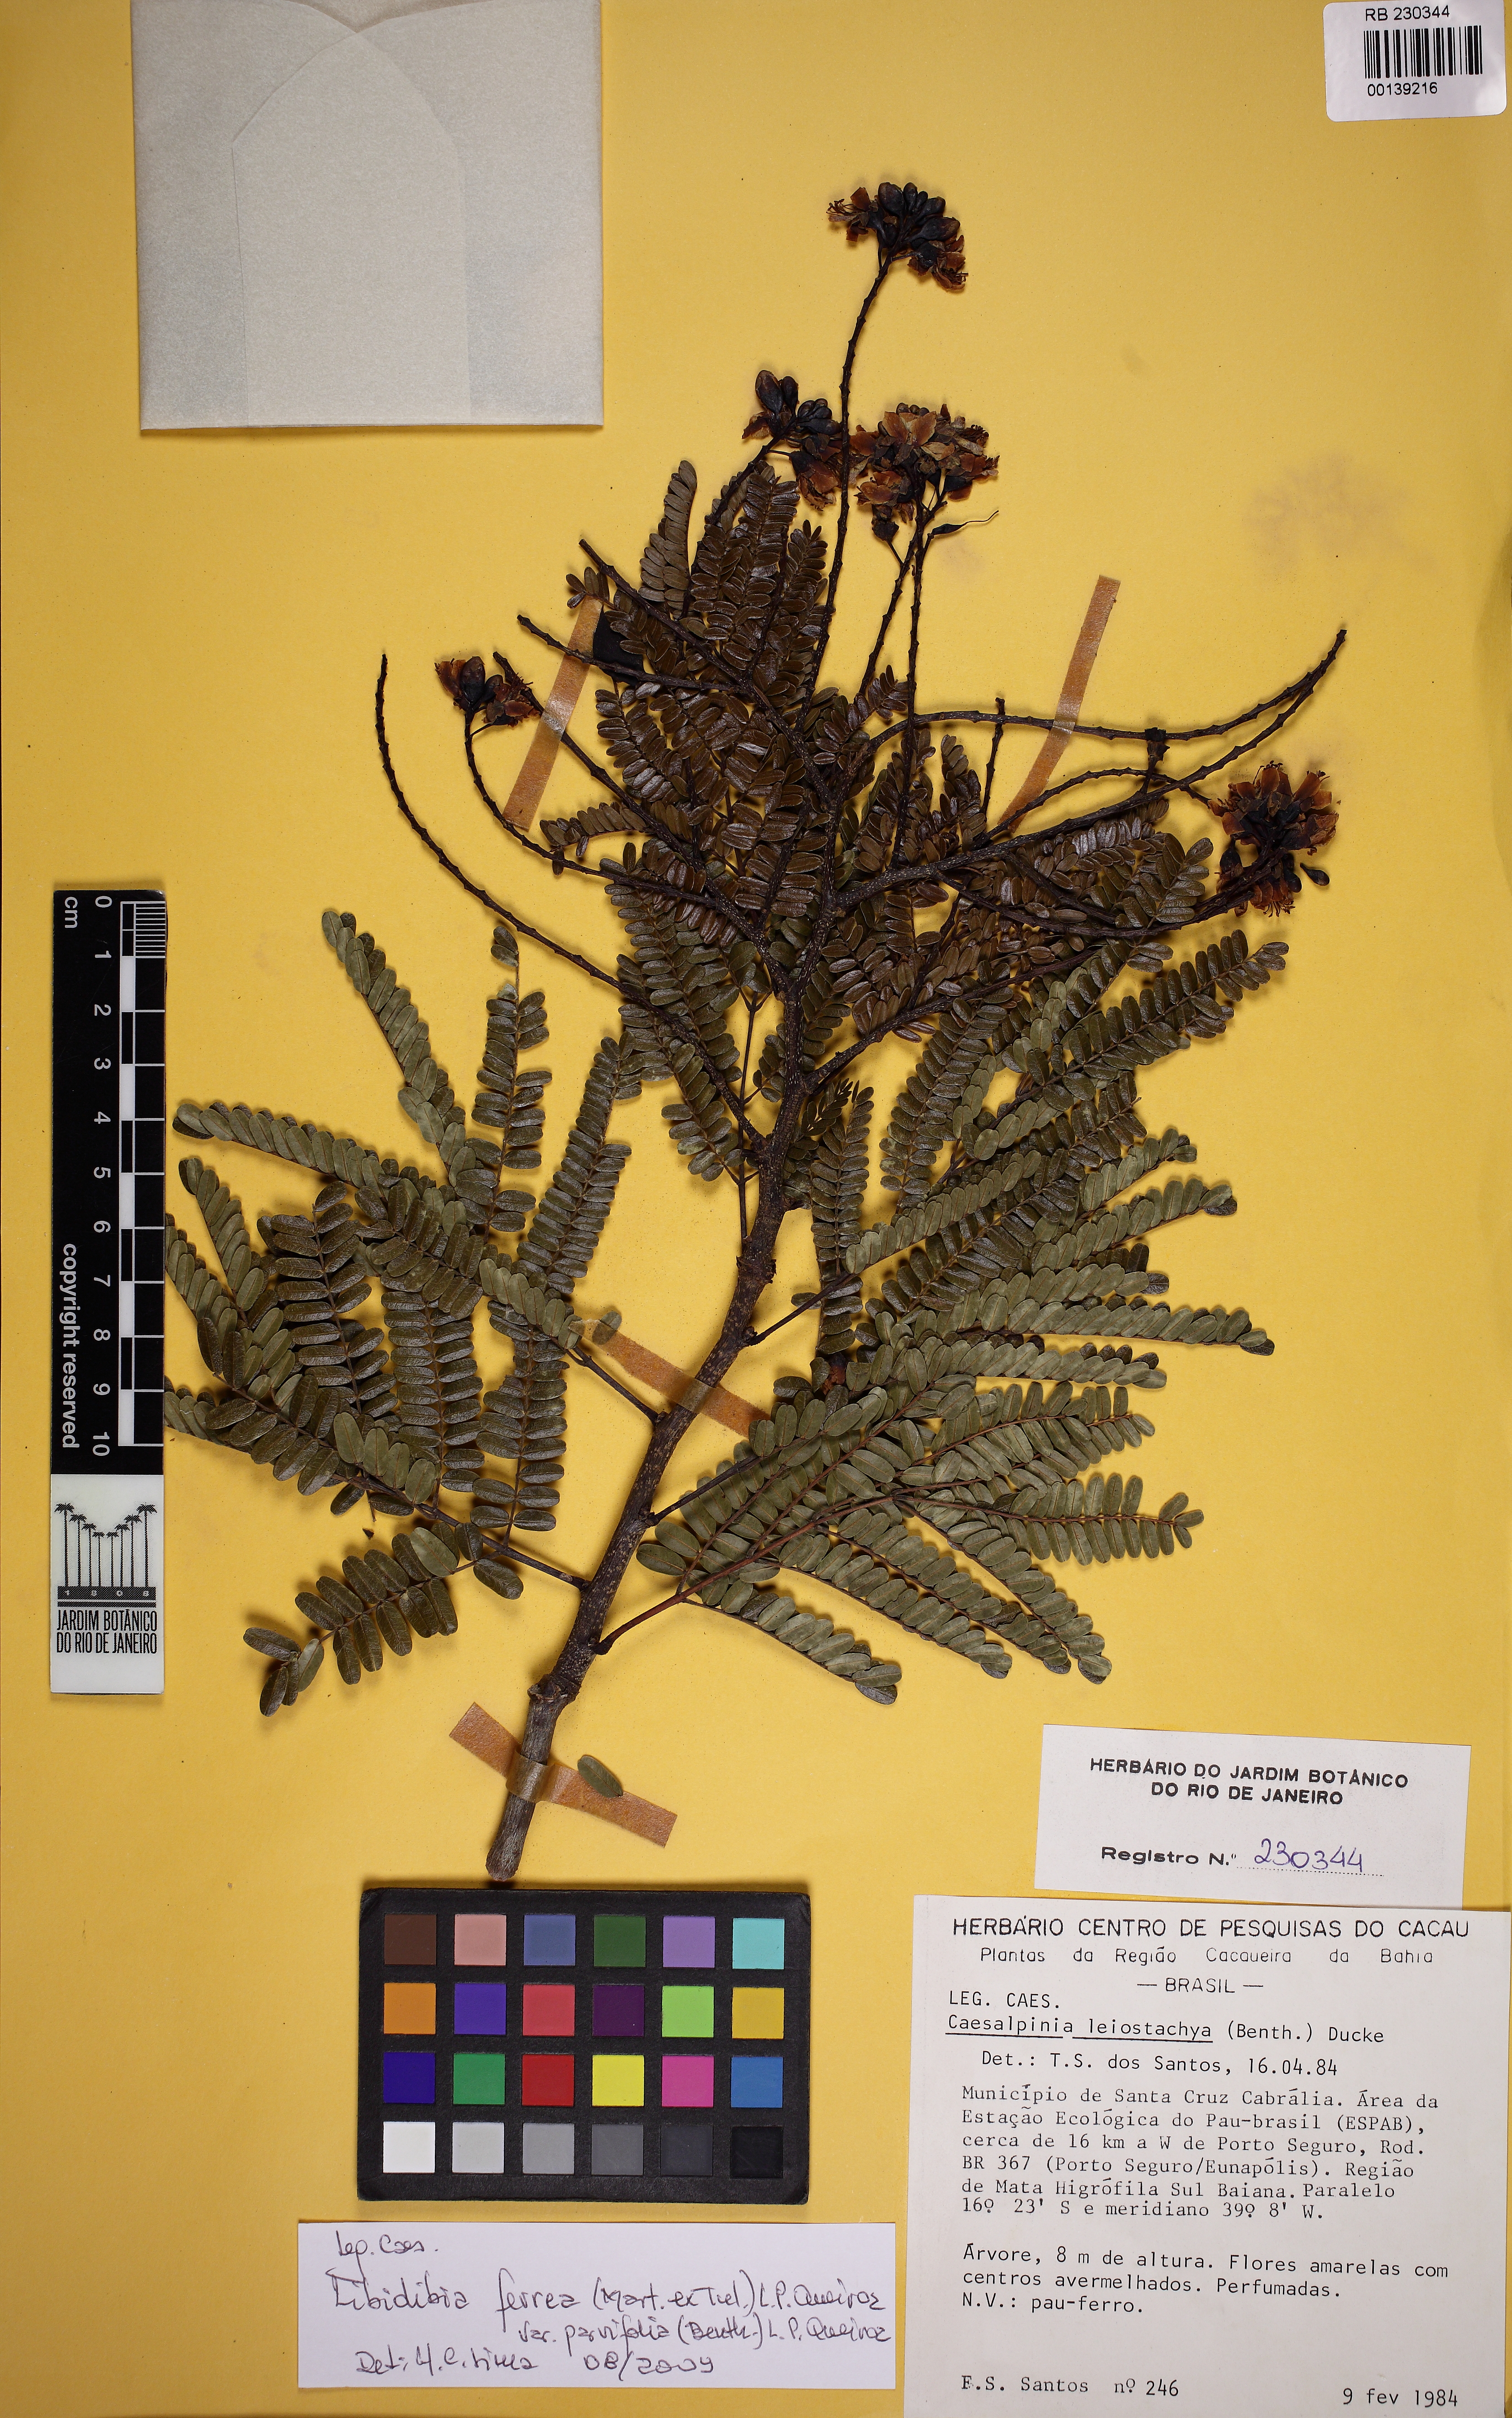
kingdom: Plantae
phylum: Tracheophyta
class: Magnoliopsida
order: Fabales
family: Fabaceae
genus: Libidibia
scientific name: Libidibia ferrea
